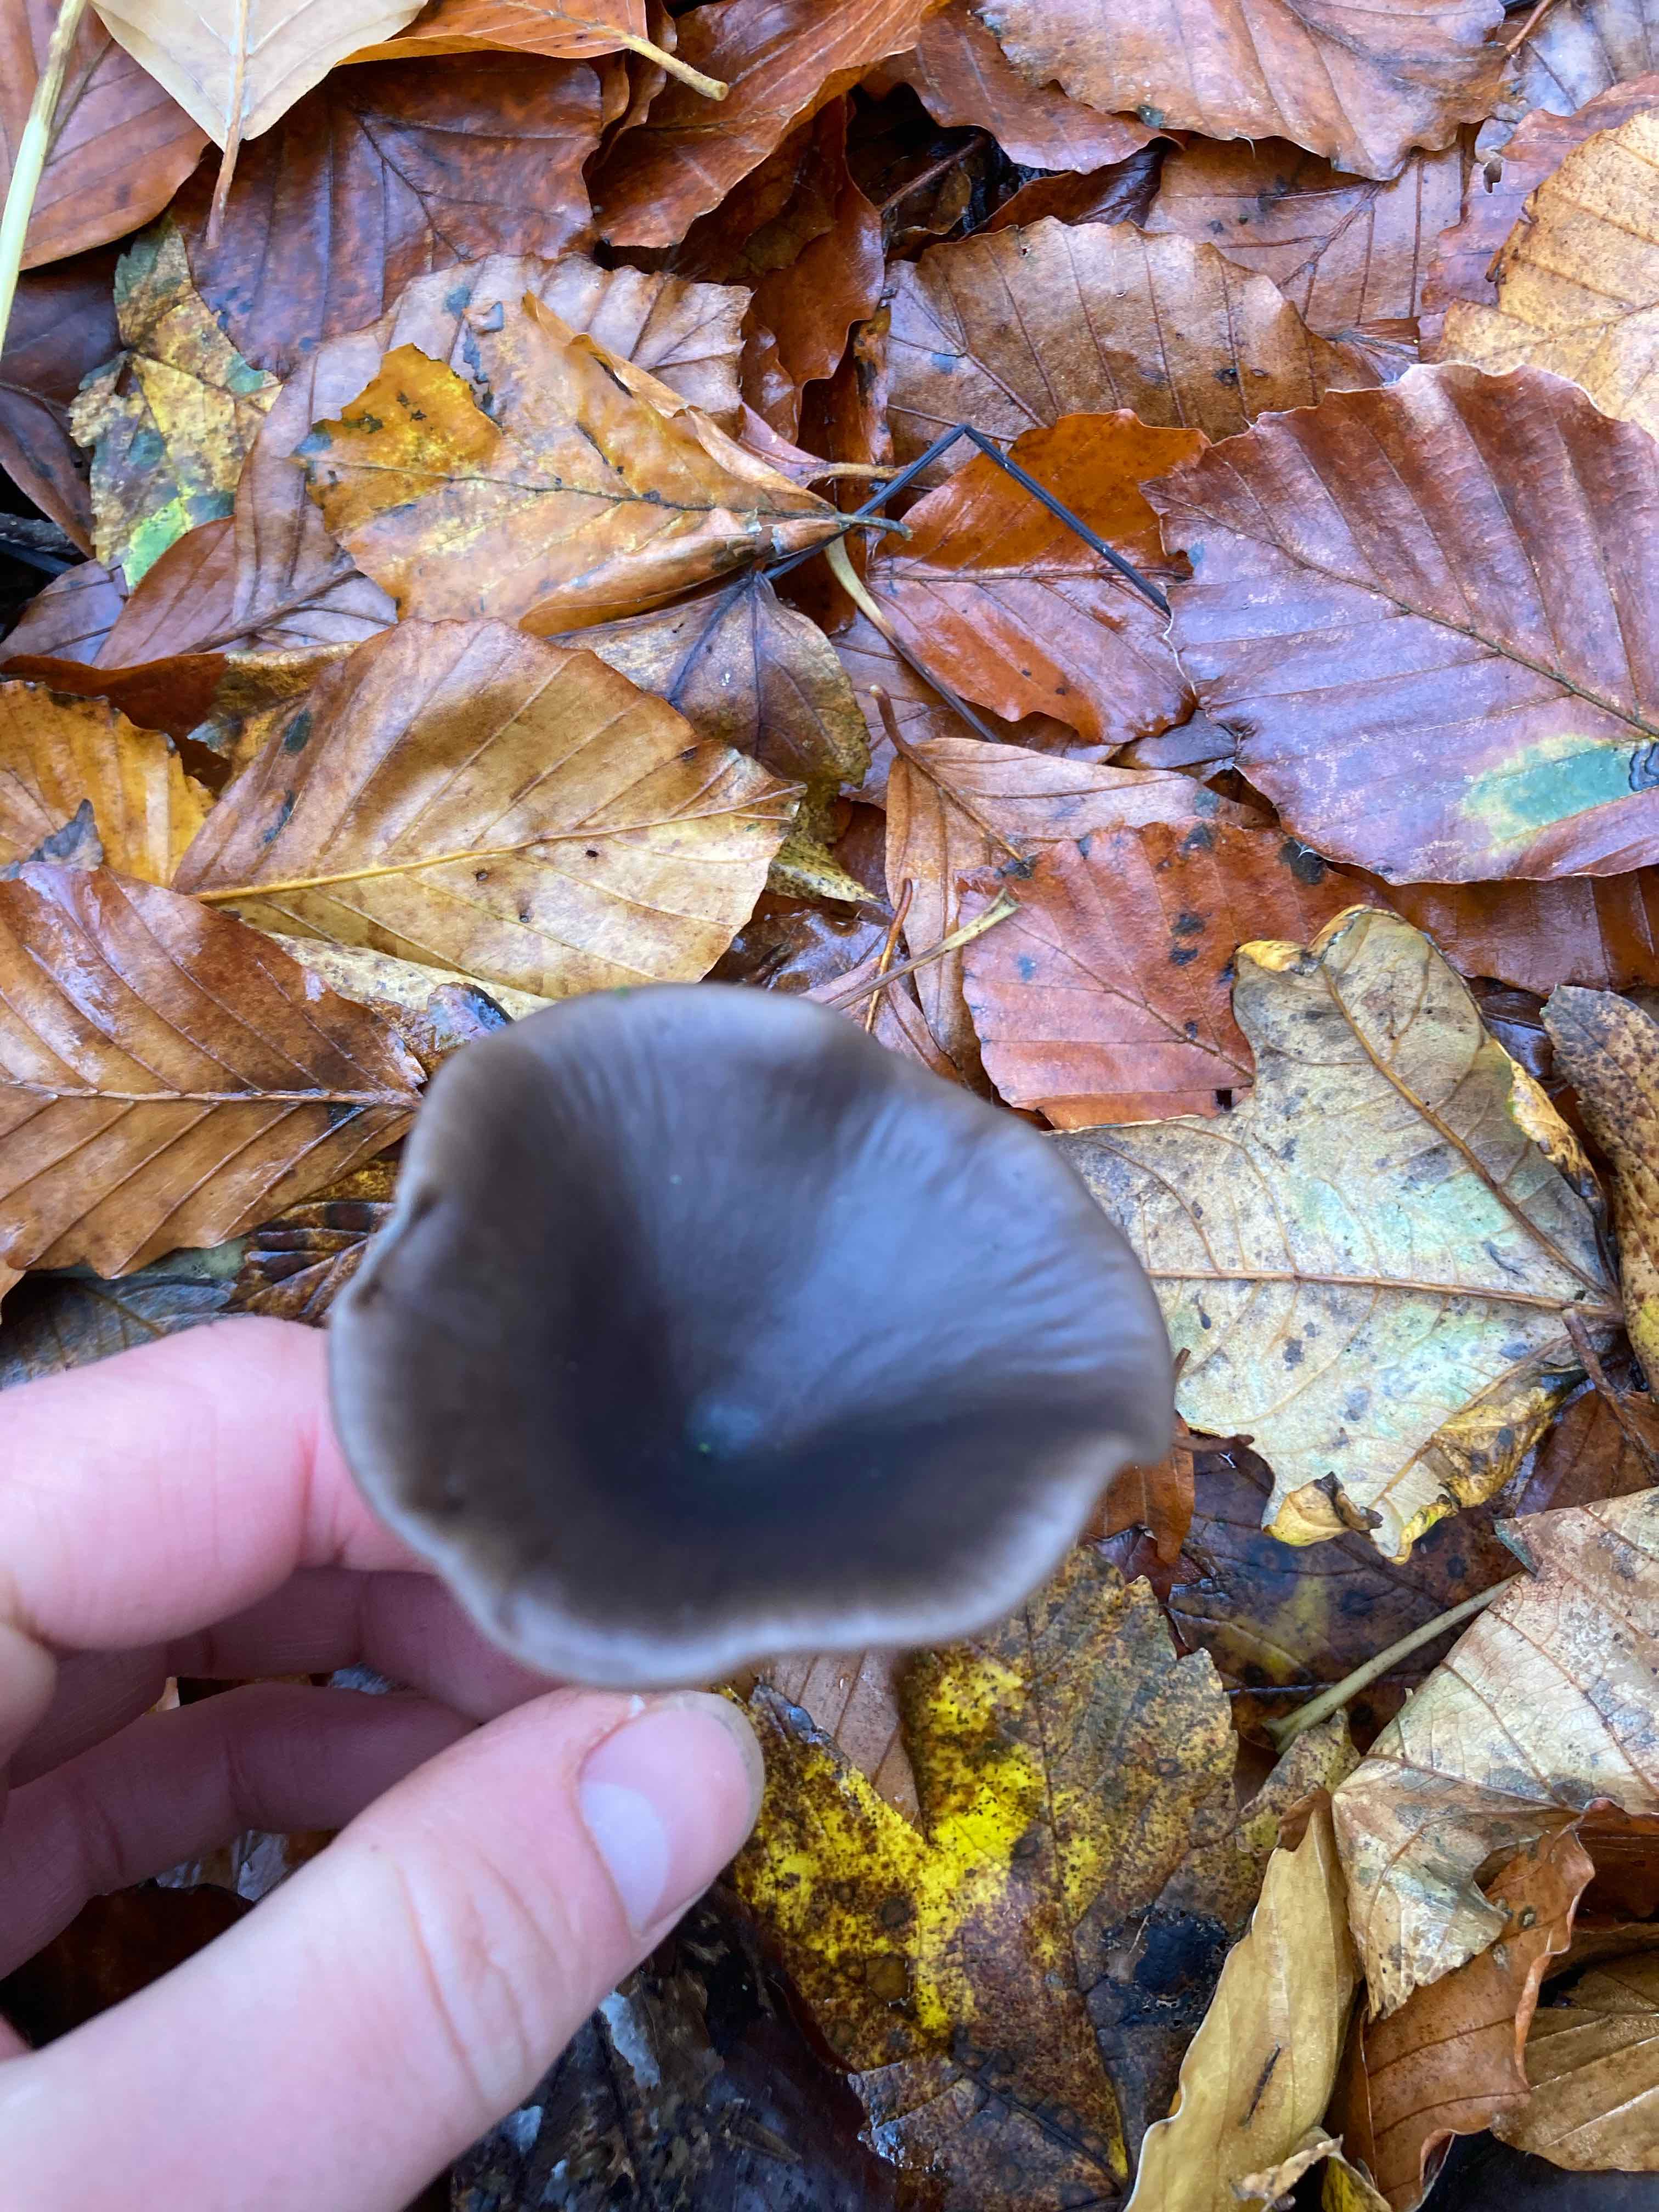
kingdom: Fungi
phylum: Basidiomycota
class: Agaricomycetes
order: Agaricales
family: Pseudoclitocybaceae
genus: Pseudoclitocybe
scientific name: Pseudoclitocybe cyathiformis
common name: almindelig bægertragthat
